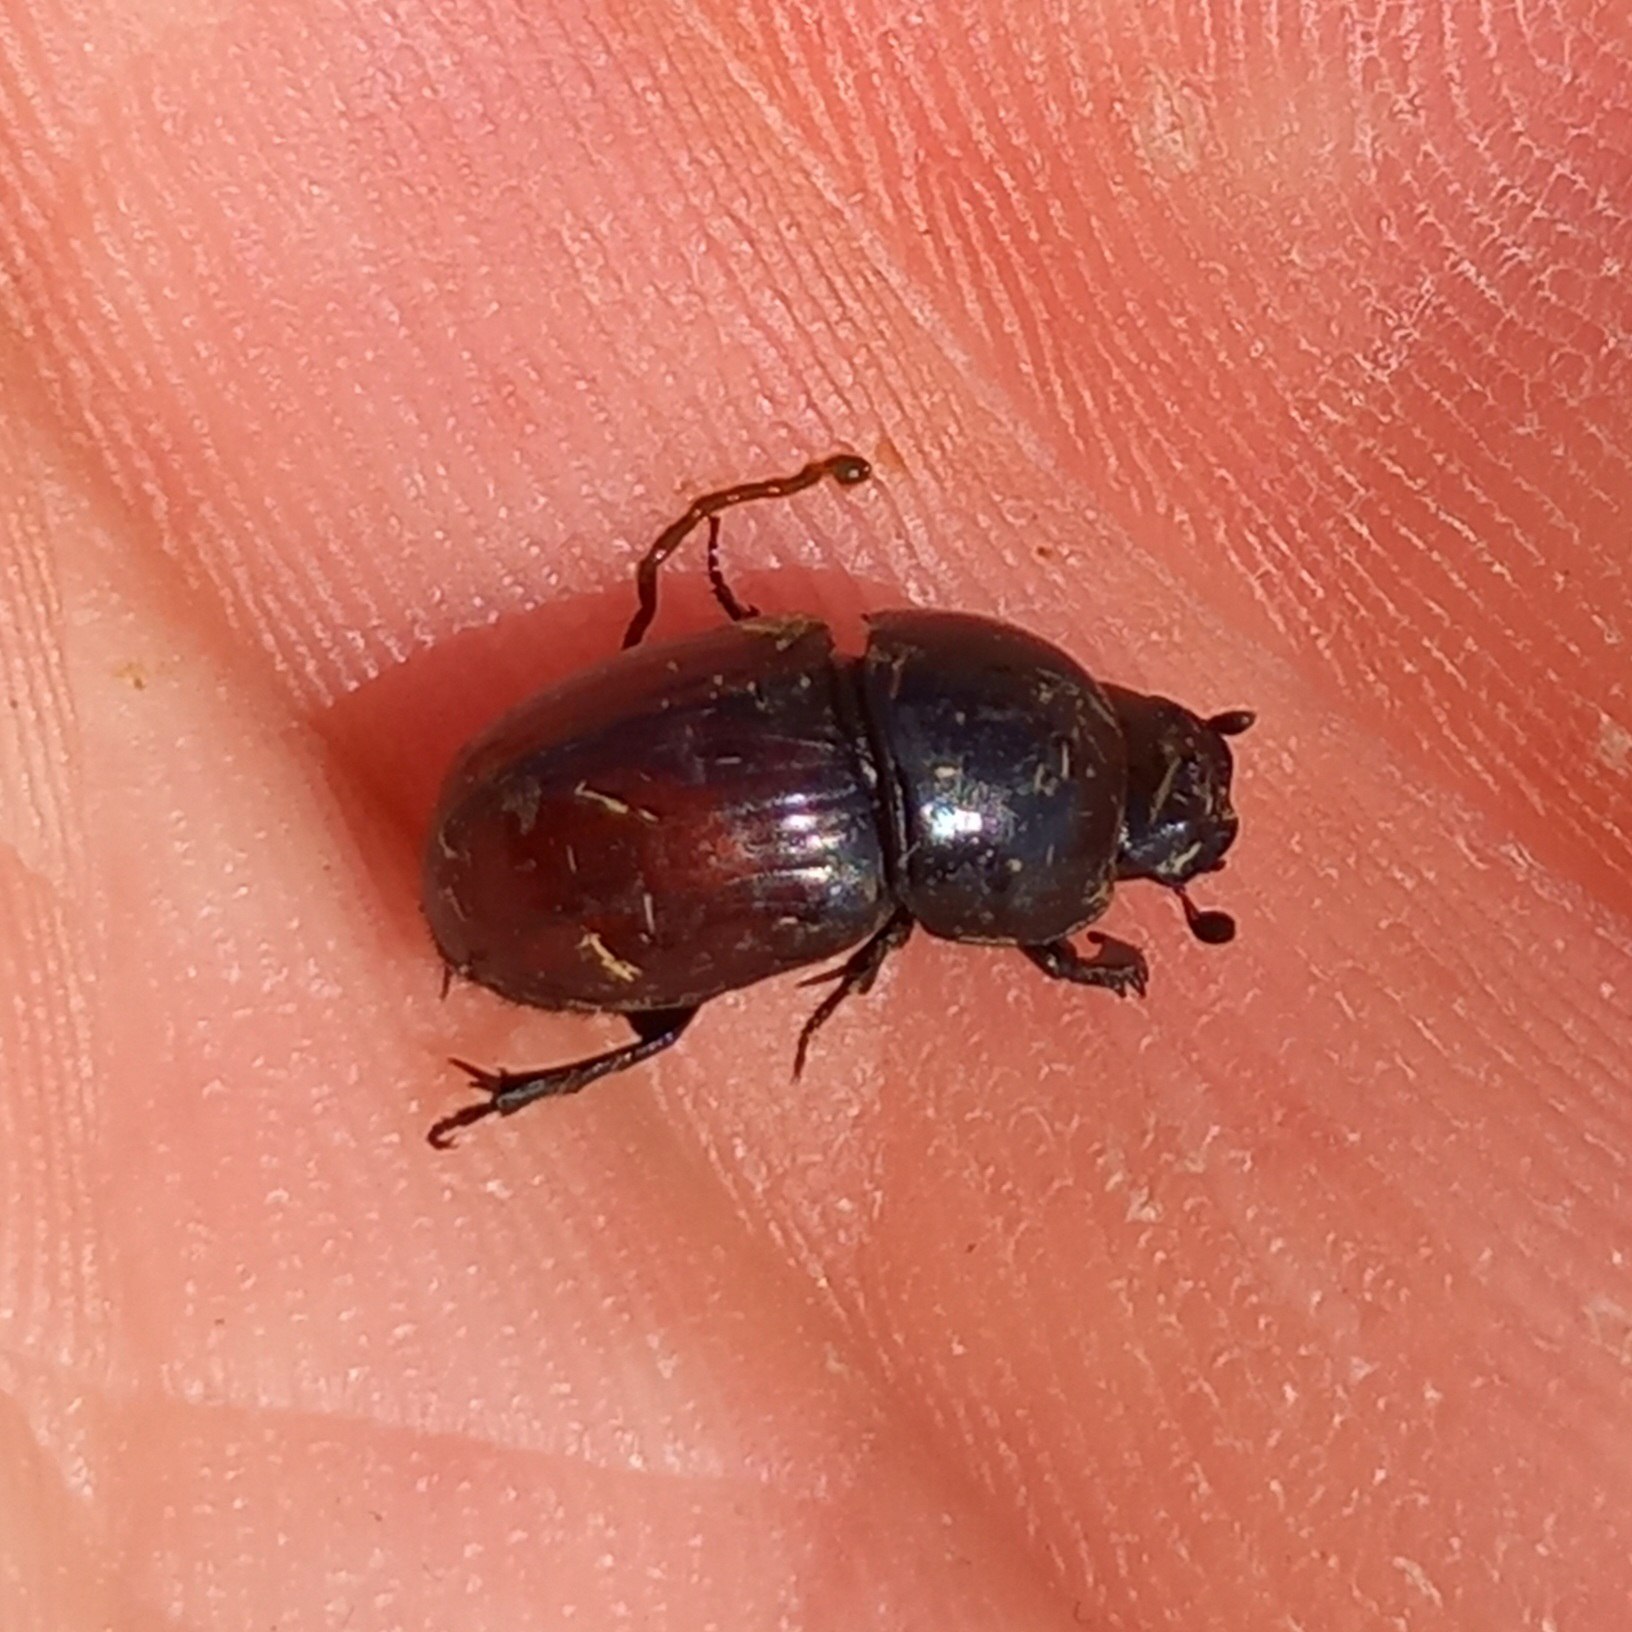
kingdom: Animalia
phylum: Arthropoda
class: Insecta
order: Coleoptera
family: Scarabaeidae
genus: Teuchestes
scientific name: Teuchestes fossor
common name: Stor møgbille
